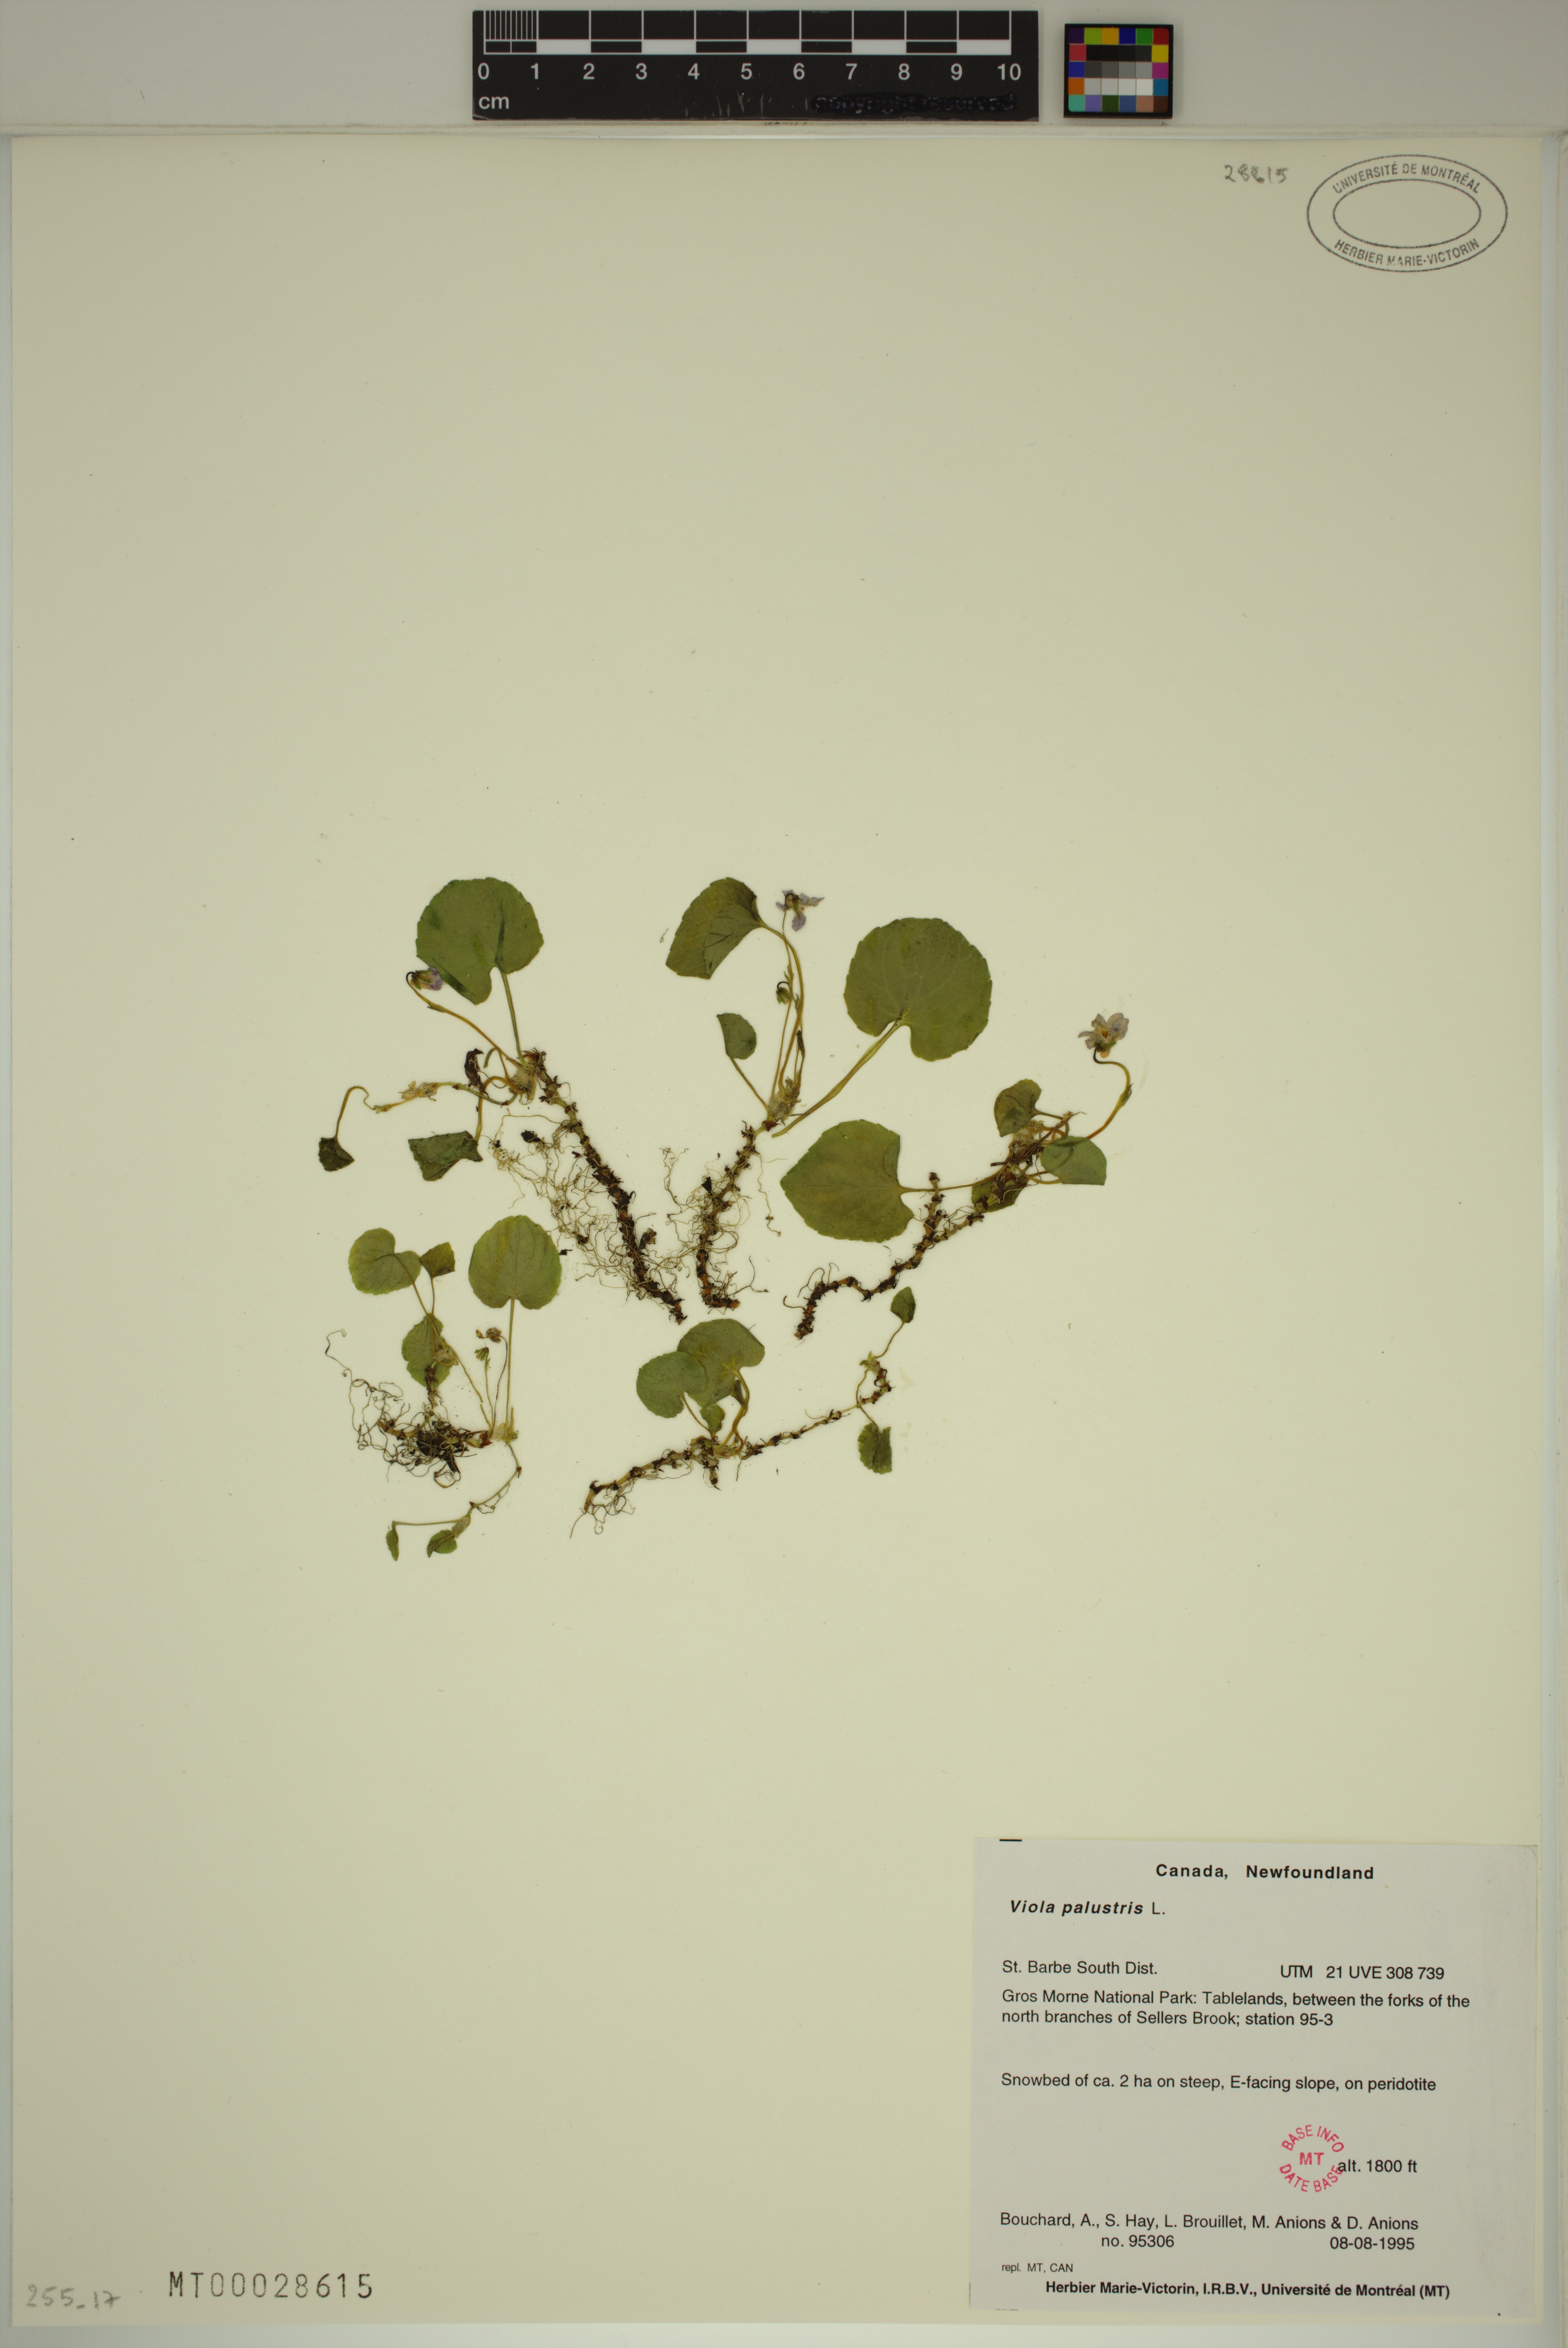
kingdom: Plantae
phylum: Tracheophyta
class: Magnoliopsida
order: Malpighiales
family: Violaceae
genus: Viola
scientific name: Viola palustris
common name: Marsh violet
